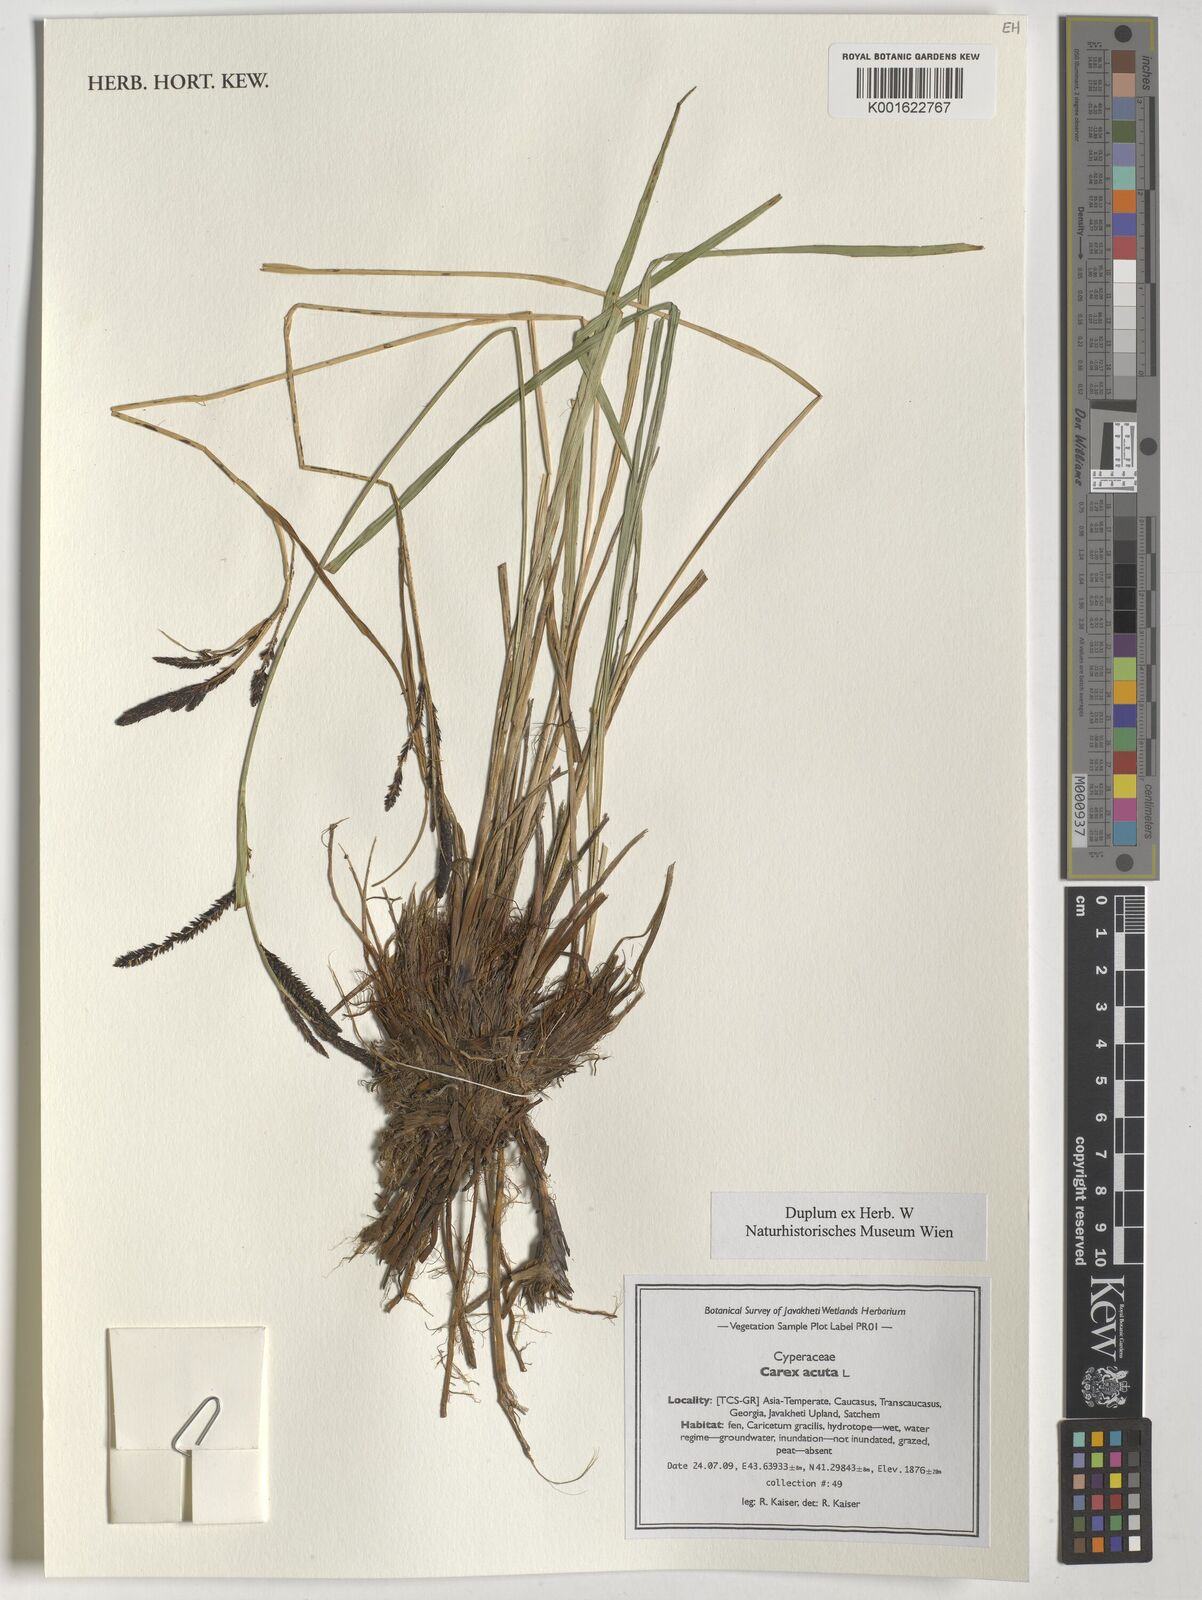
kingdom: Plantae
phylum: Tracheophyta
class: Liliopsida
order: Poales
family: Cyperaceae
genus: Carex
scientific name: Carex acuta
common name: Slender tufted-sedge
